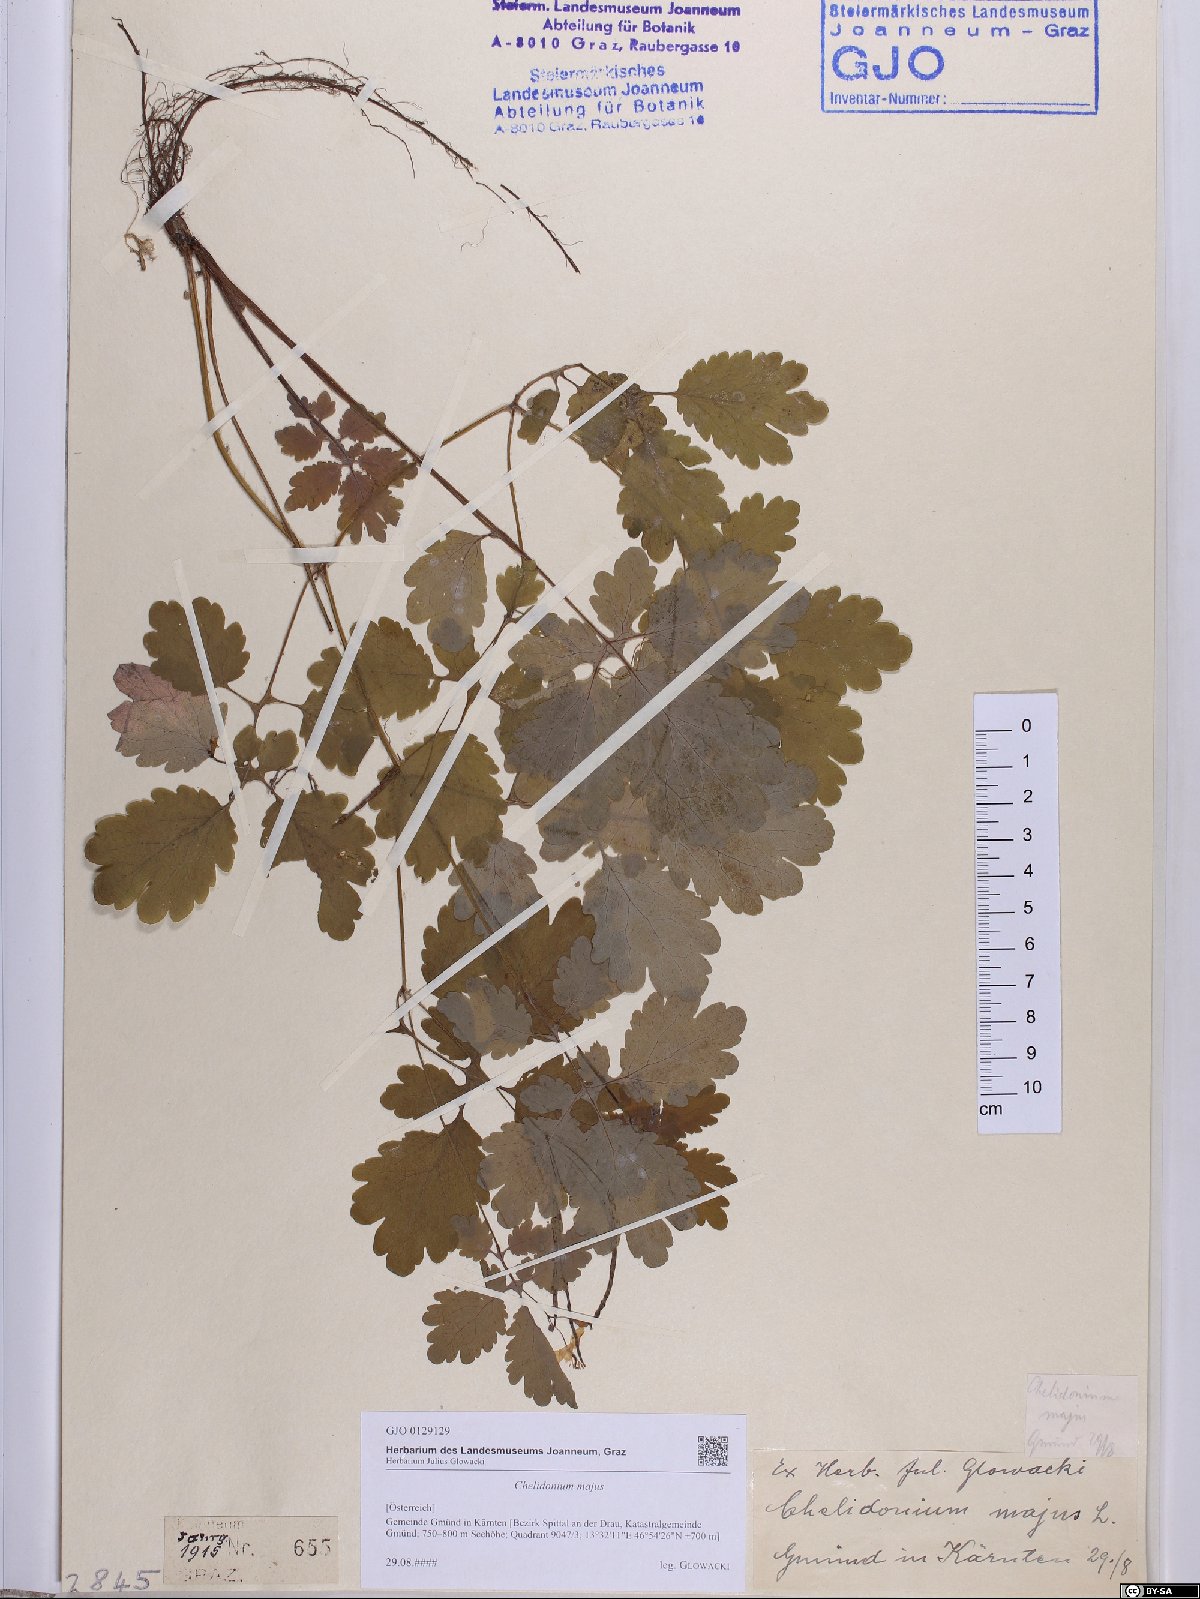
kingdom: Plantae
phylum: Tracheophyta
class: Magnoliopsida
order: Ranunculales
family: Papaveraceae
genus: Chelidonium
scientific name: Chelidonium majus
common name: Greater celandine
